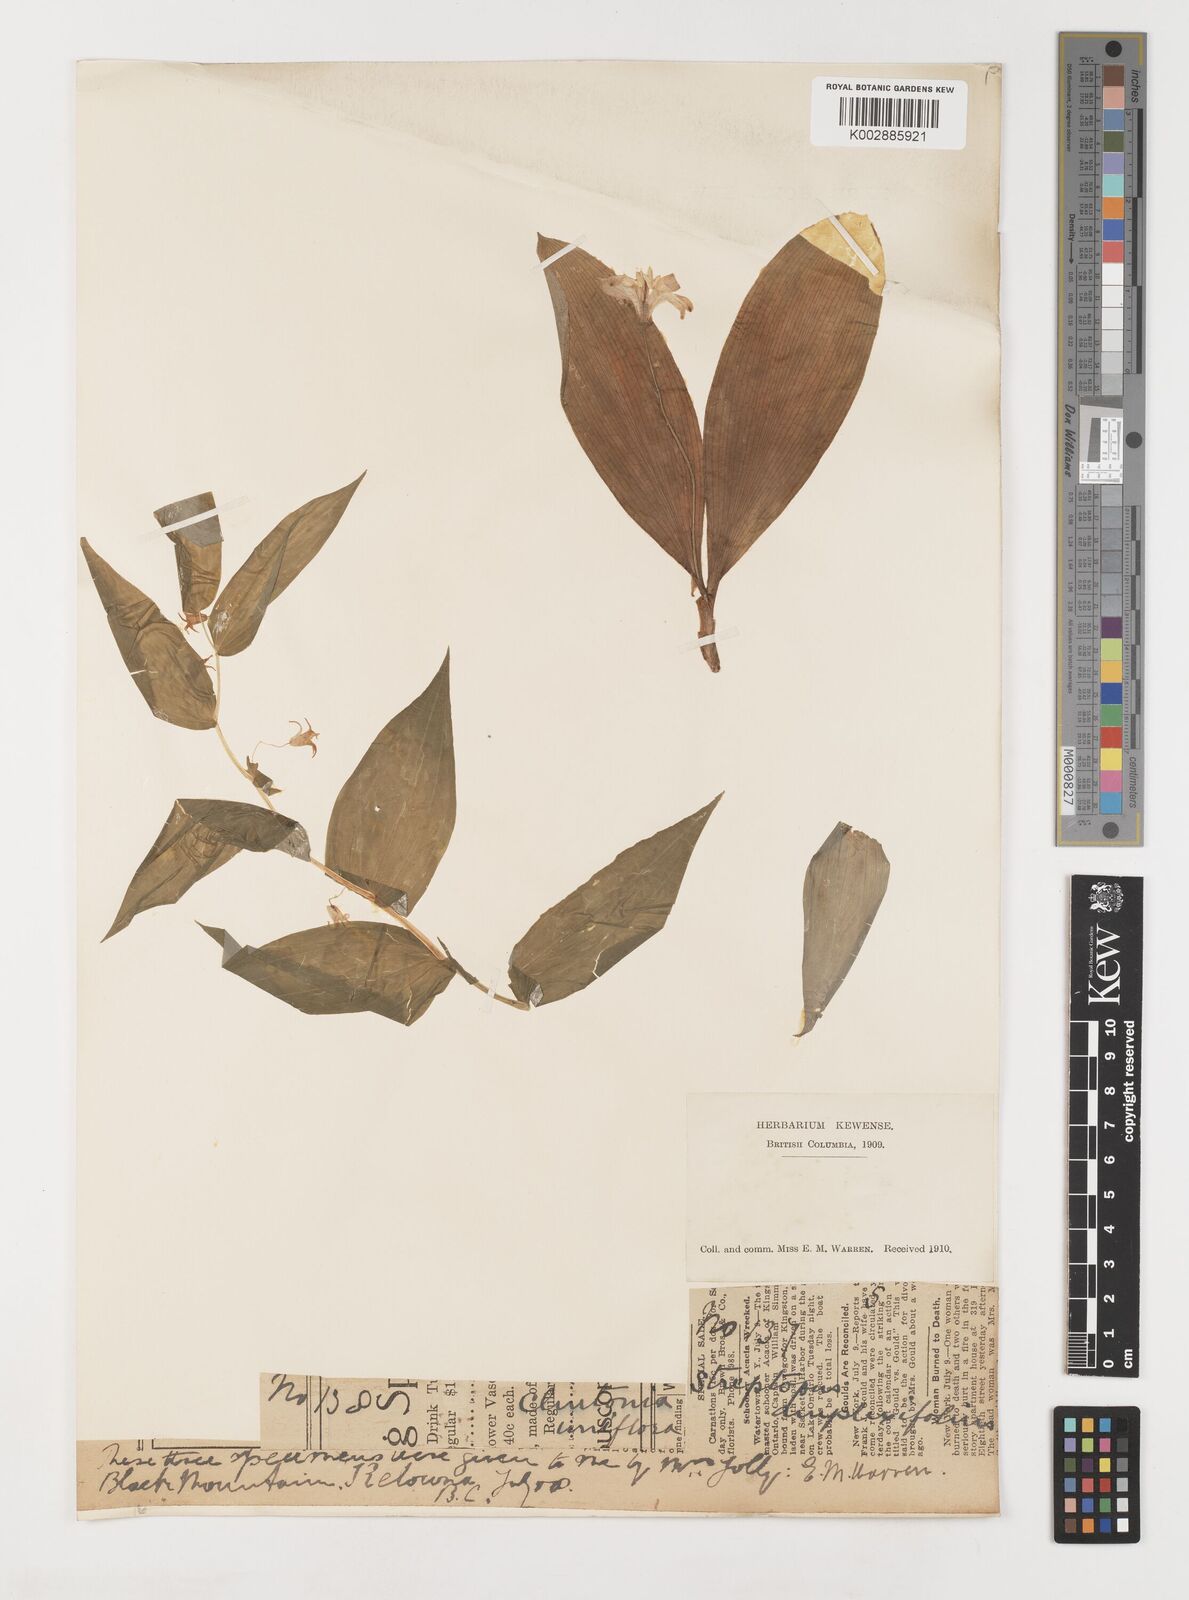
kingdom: Plantae
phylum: Tracheophyta
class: Liliopsida
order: Liliales
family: Liliaceae
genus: Streptopus
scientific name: Streptopus
